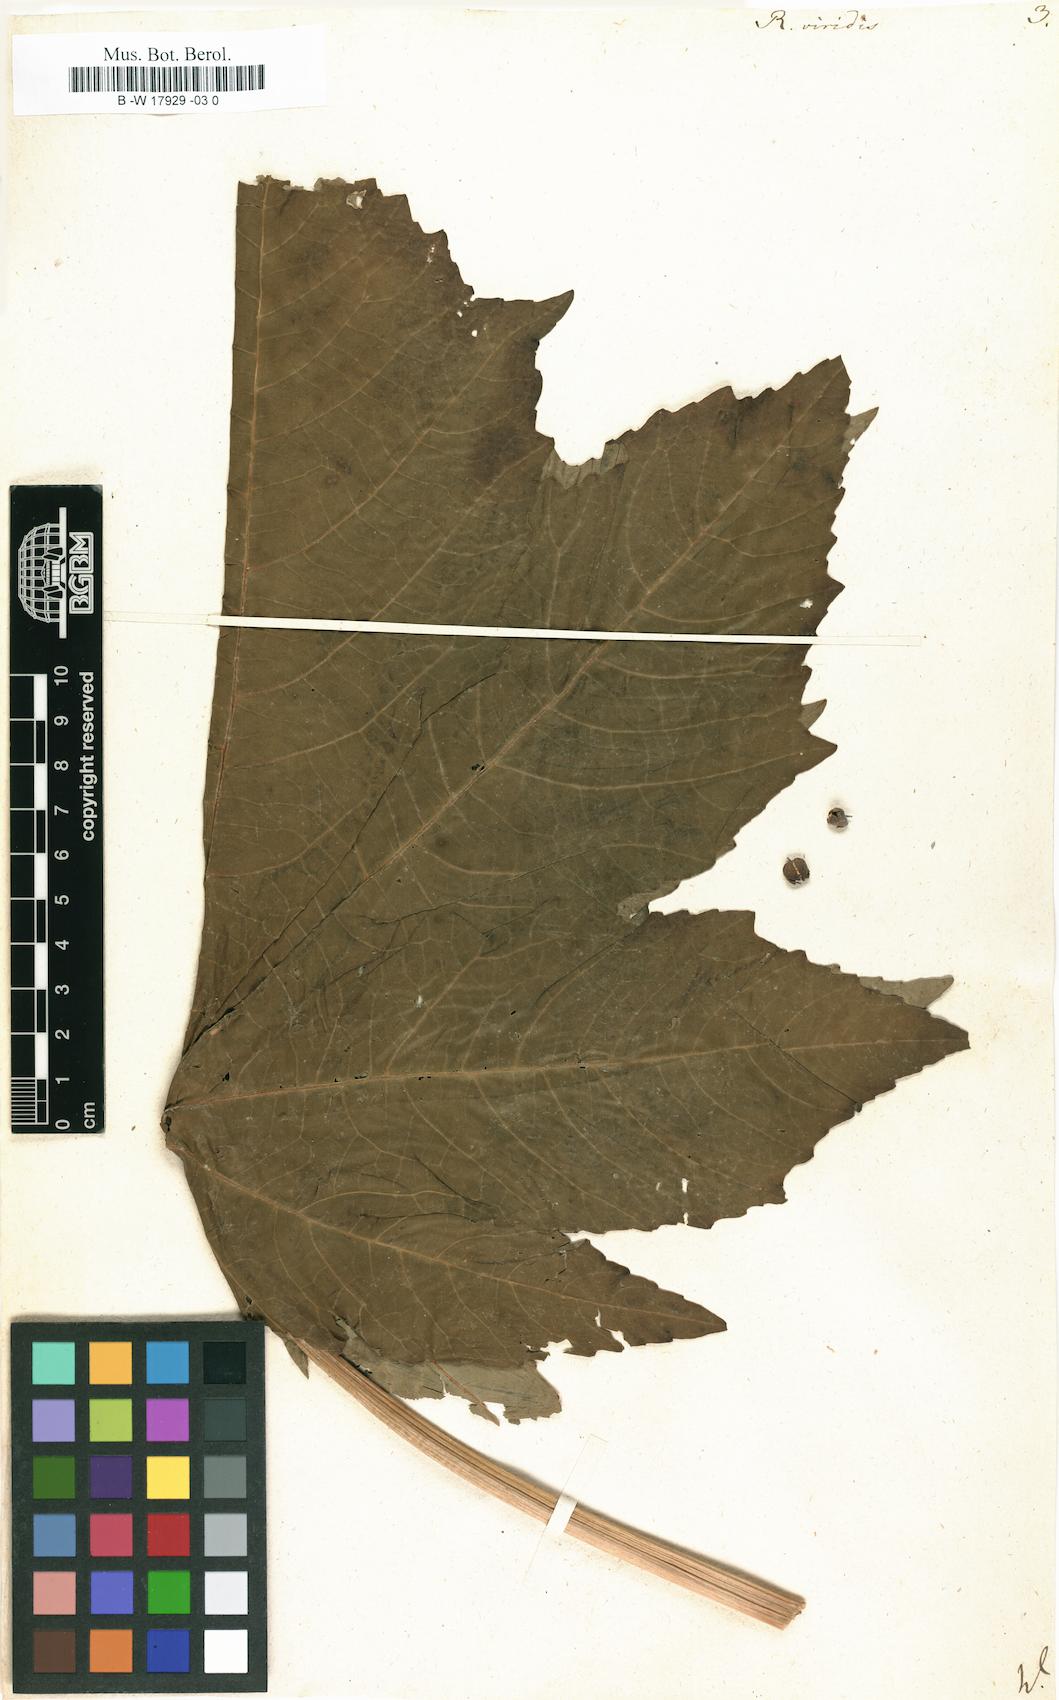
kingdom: Plantae
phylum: Tracheophyta
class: Magnoliopsida
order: Malpighiales
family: Euphorbiaceae
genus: Ricinus
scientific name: Ricinus communis
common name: Castor-oil-plant
